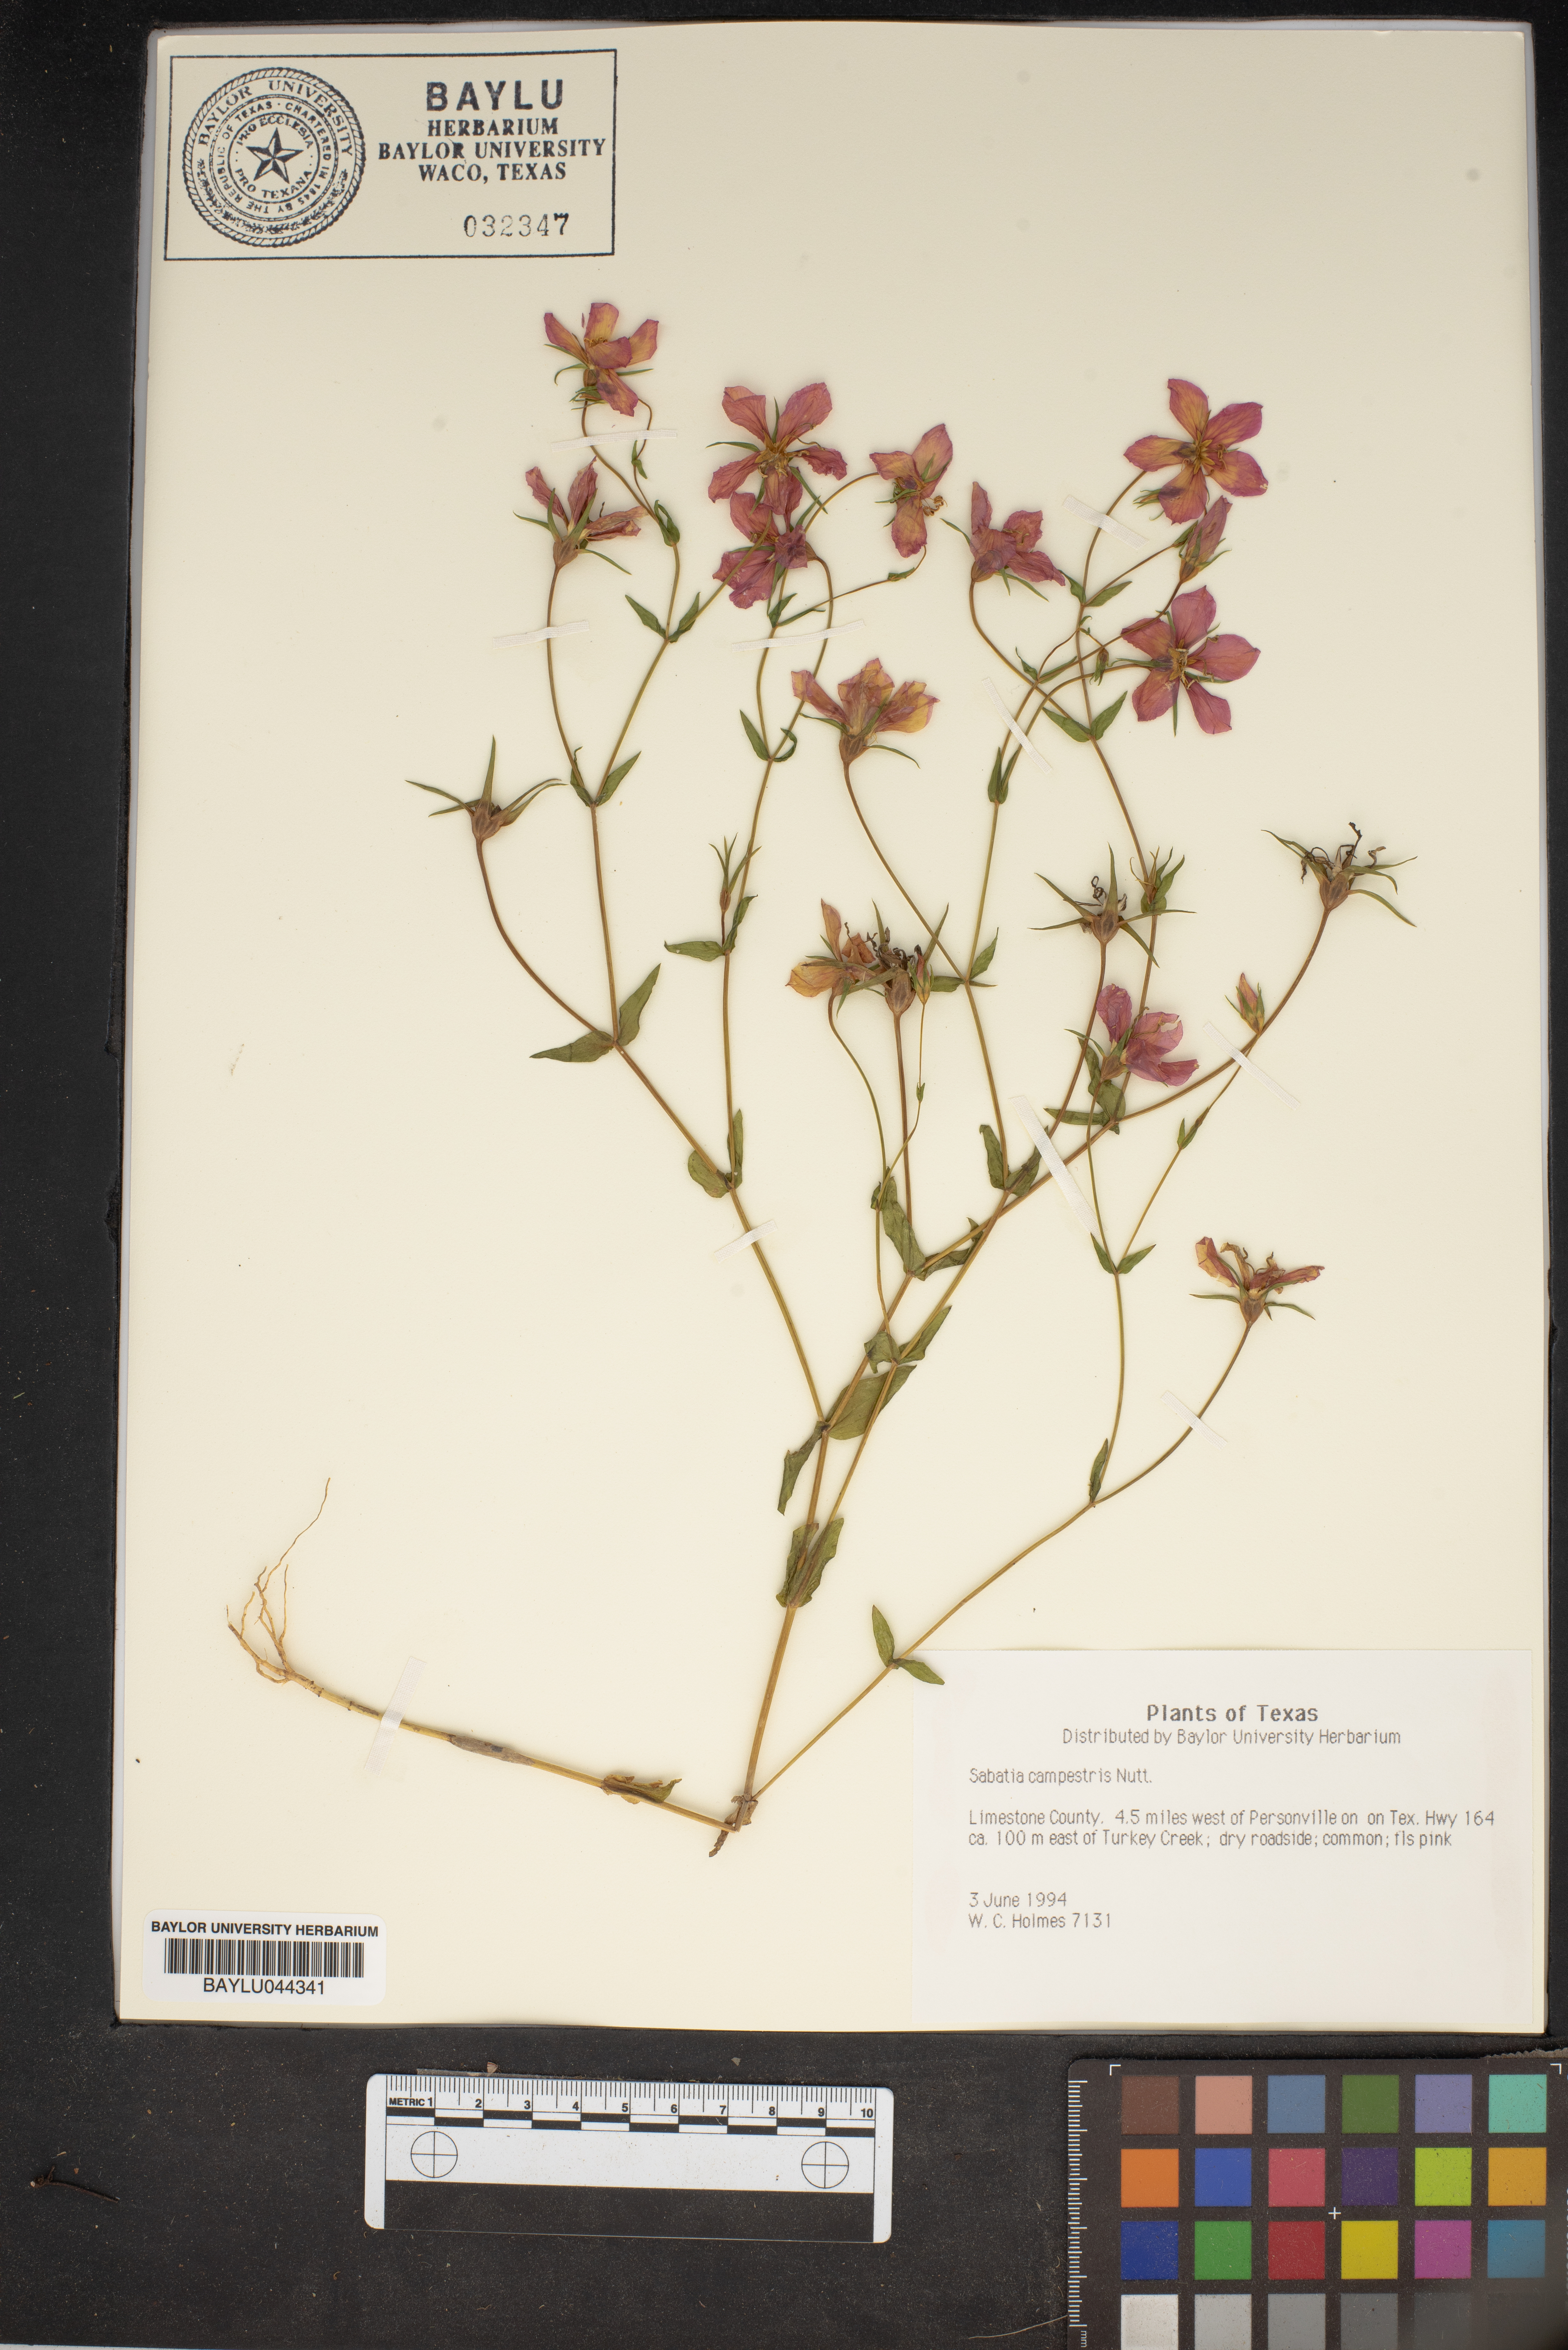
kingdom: Plantae
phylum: Tracheophyta
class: Magnoliopsida
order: Gentianales
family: Gentianaceae
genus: Sabatia
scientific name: Sabatia campestris
